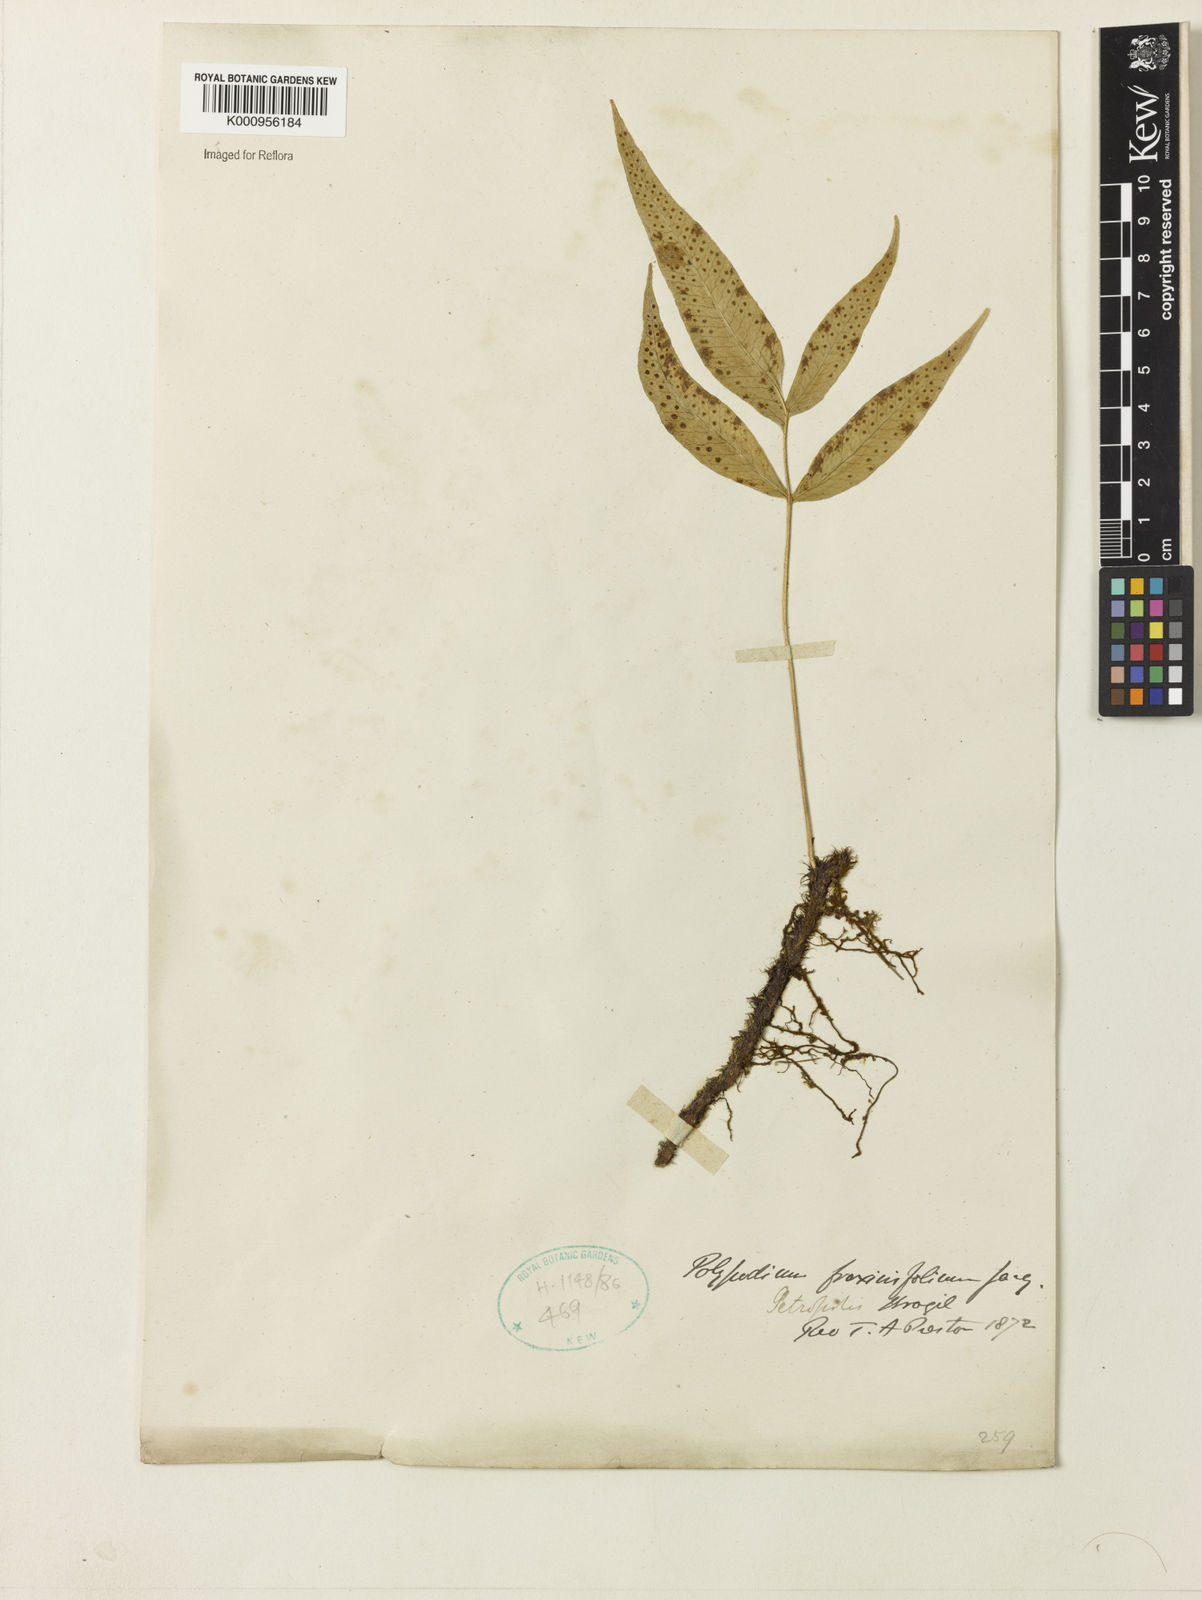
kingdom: Plantae
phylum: Tracheophyta
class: Polypodiopsida
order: Polypodiales
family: Polypodiaceae
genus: Serpocaulon
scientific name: Serpocaulon fraxinifolium
